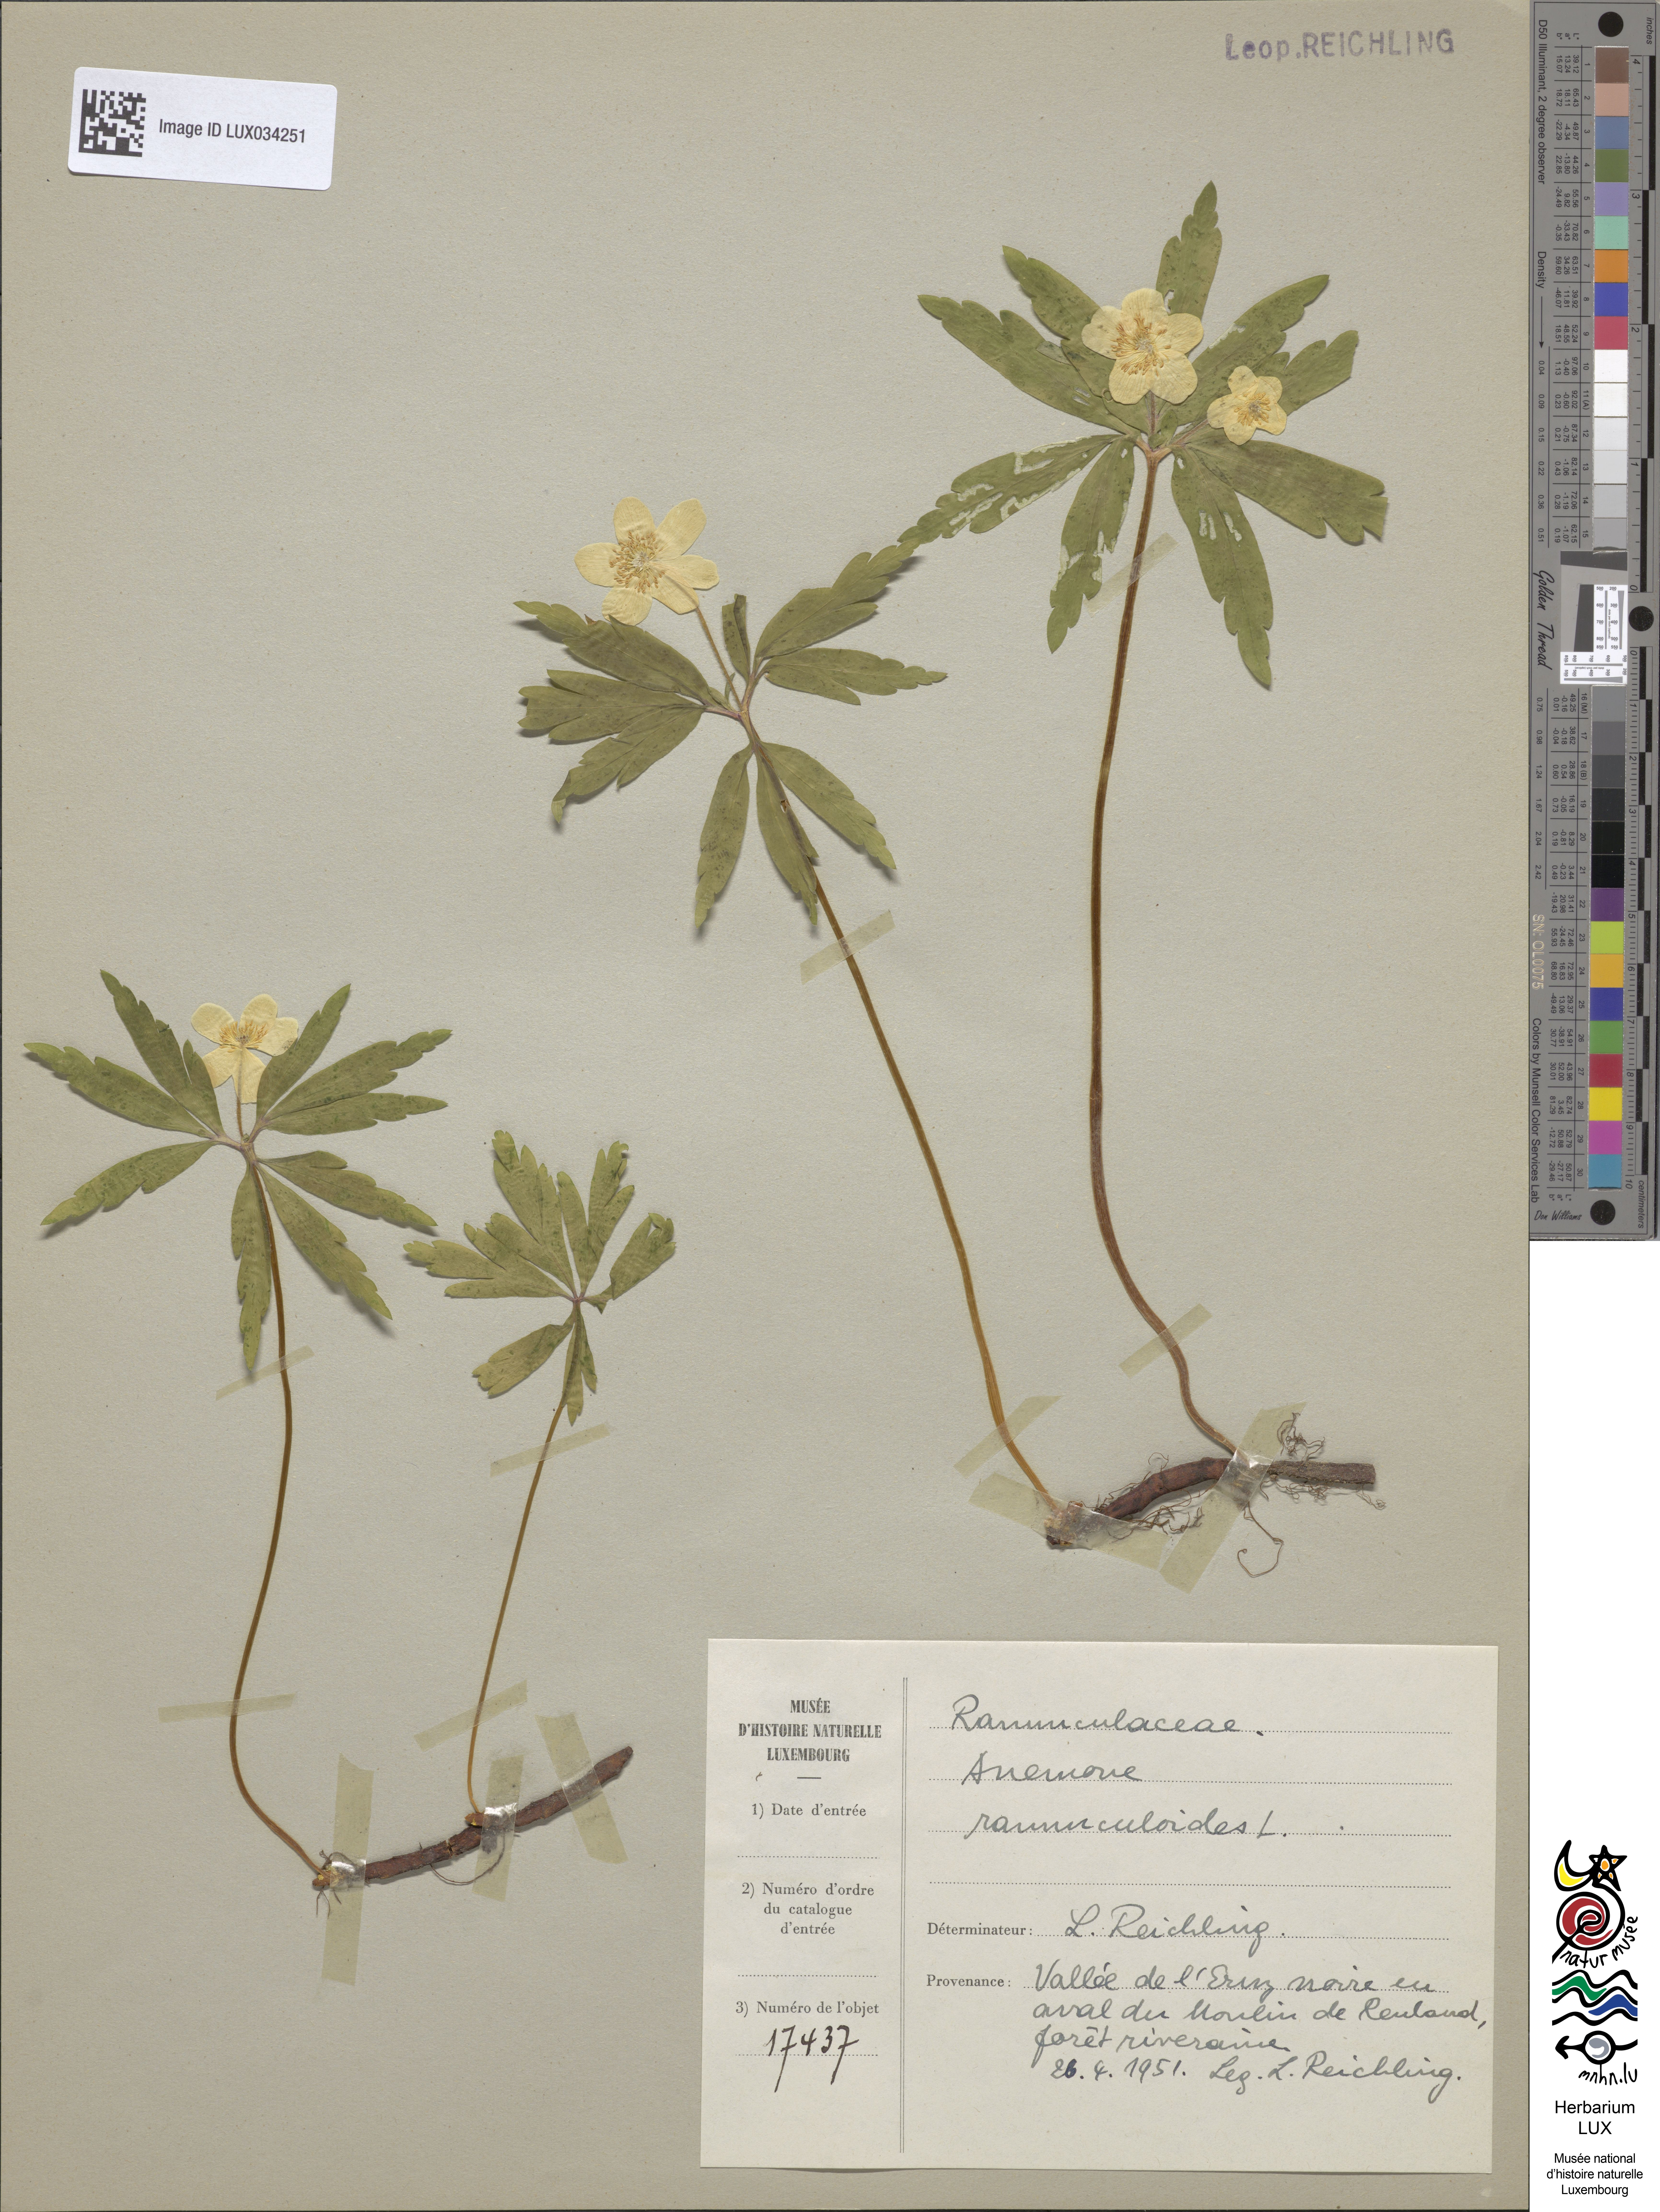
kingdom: Plantae
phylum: Tracheophyta
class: Magnoliopsida
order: Ranunculales
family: Ranunculaceae
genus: Anemone
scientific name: Anemone ranunculoides
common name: Yellow anemone
